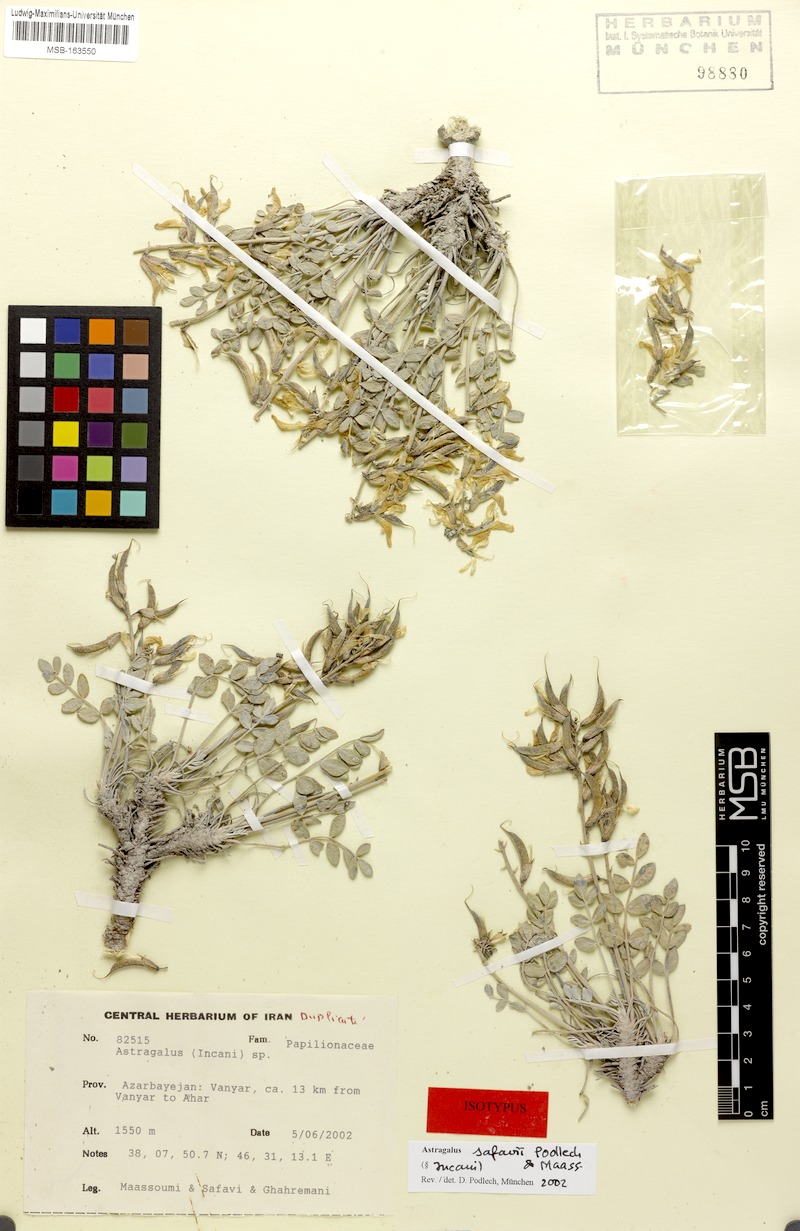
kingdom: Plantae
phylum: Tracheophyta
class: Magnoliopsida
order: Fabales
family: Fabaceae
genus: Astragalus
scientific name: Astragalus safavii
